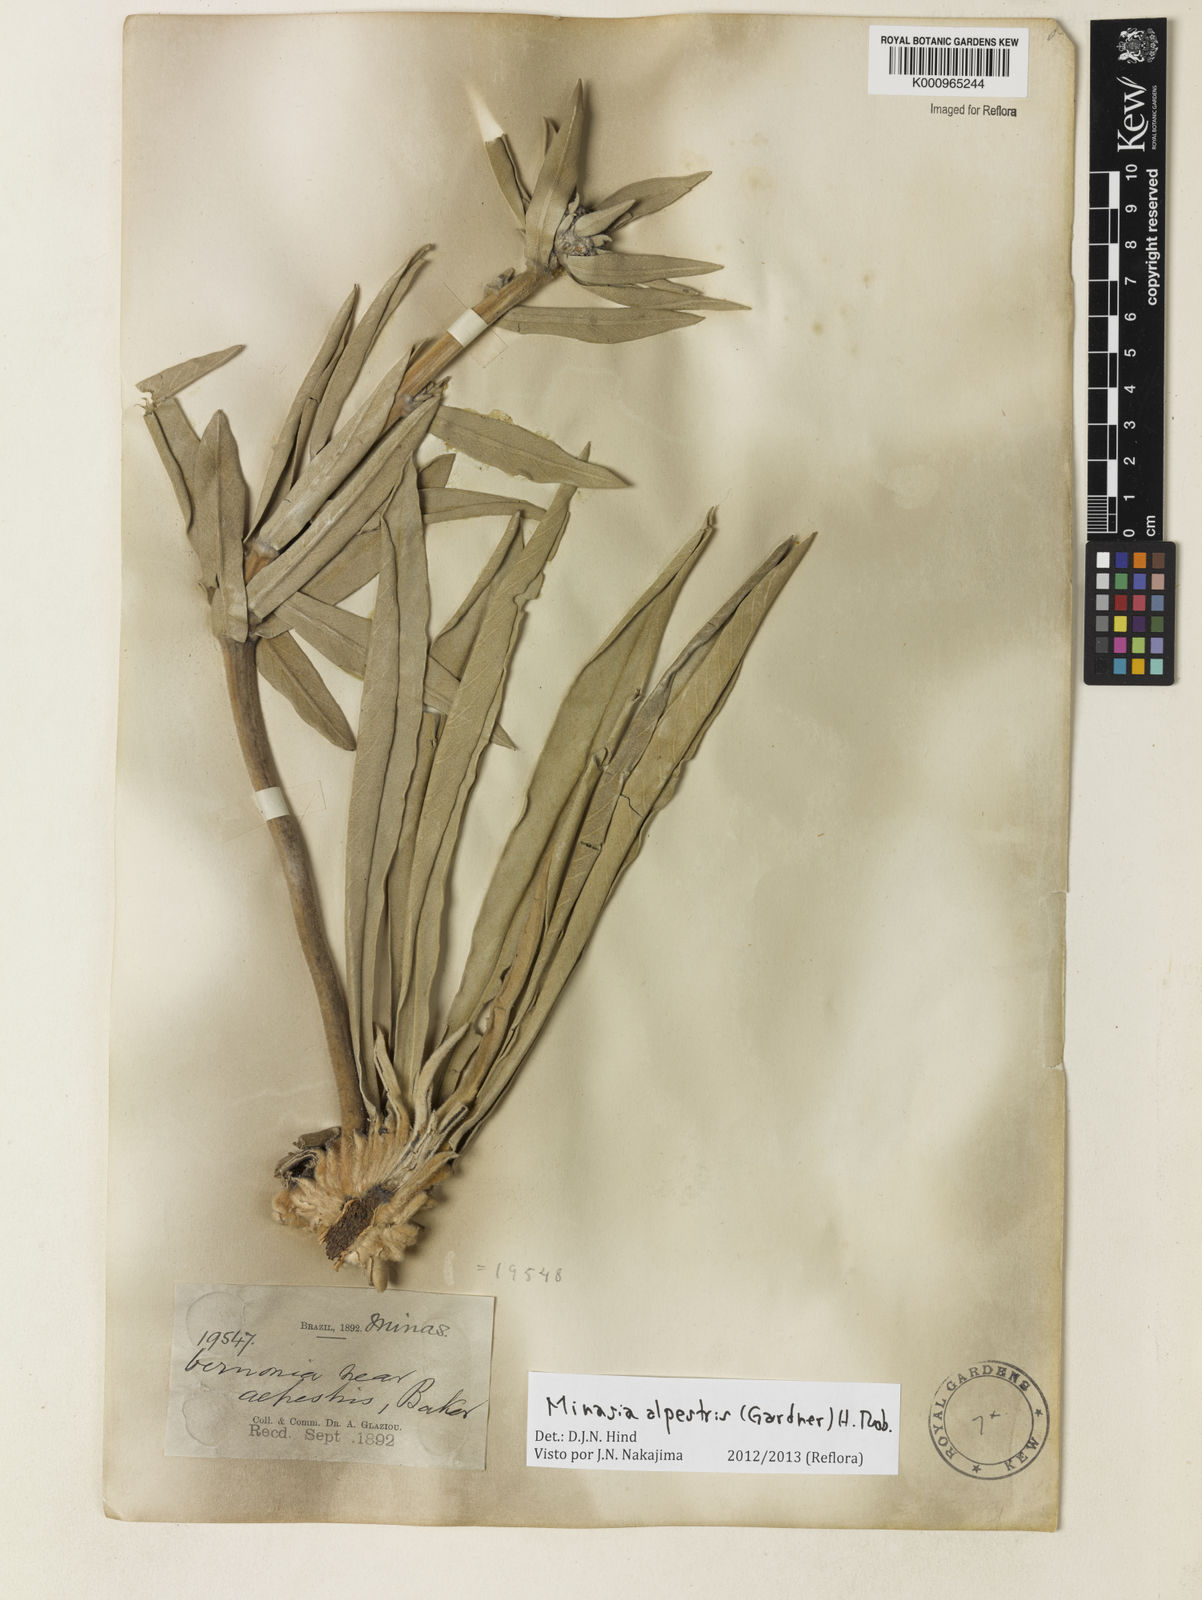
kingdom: Plantae
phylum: Tracheophyta
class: Magnoliopsida
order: Asterales
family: Asteraceae
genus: Minasia
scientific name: Minasia alpestris
